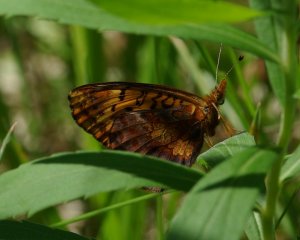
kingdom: Animalia
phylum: Arthropoda
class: Insecta
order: Lepidoptera
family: Nymphalidae
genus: Clossiana
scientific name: Clossiana toddi
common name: Meadow Fritillary
